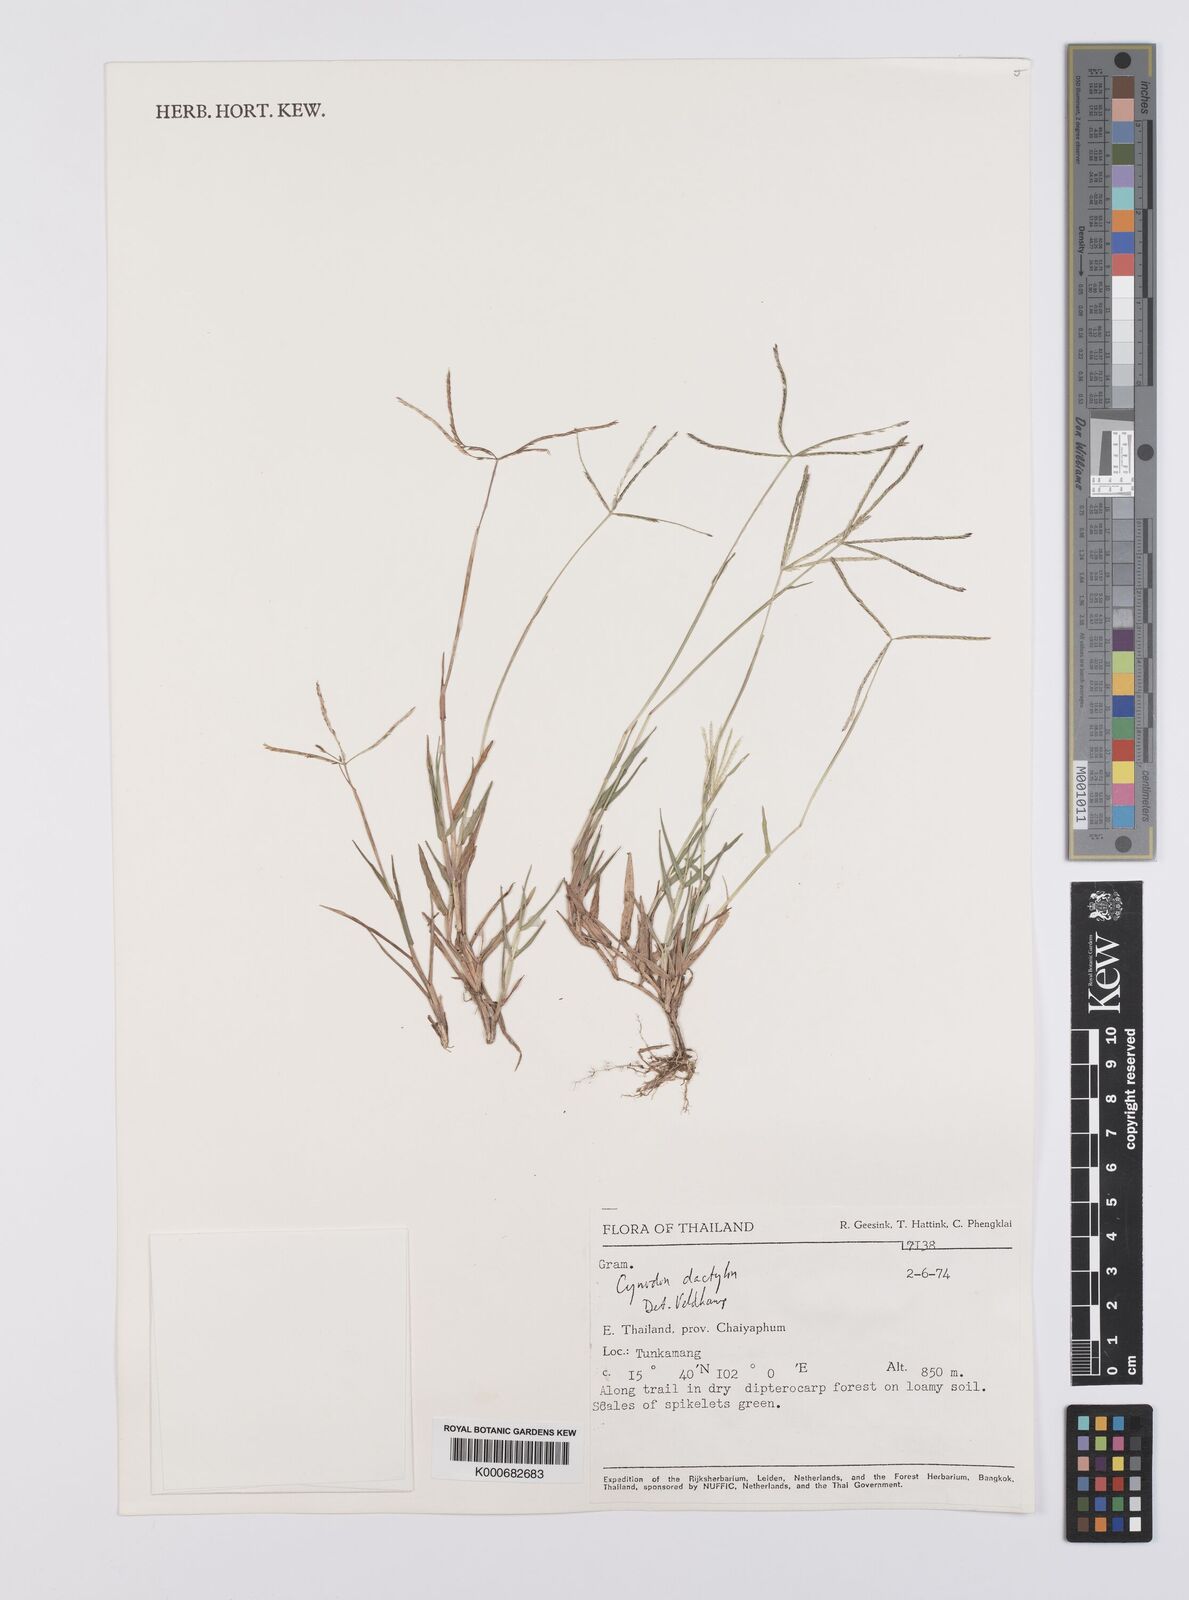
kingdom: Plantae
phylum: Tracheophyta
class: Liliopsida
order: Poales
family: Poaceae
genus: Cynodon
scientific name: Cynodon dactylon
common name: Bermuda grass
